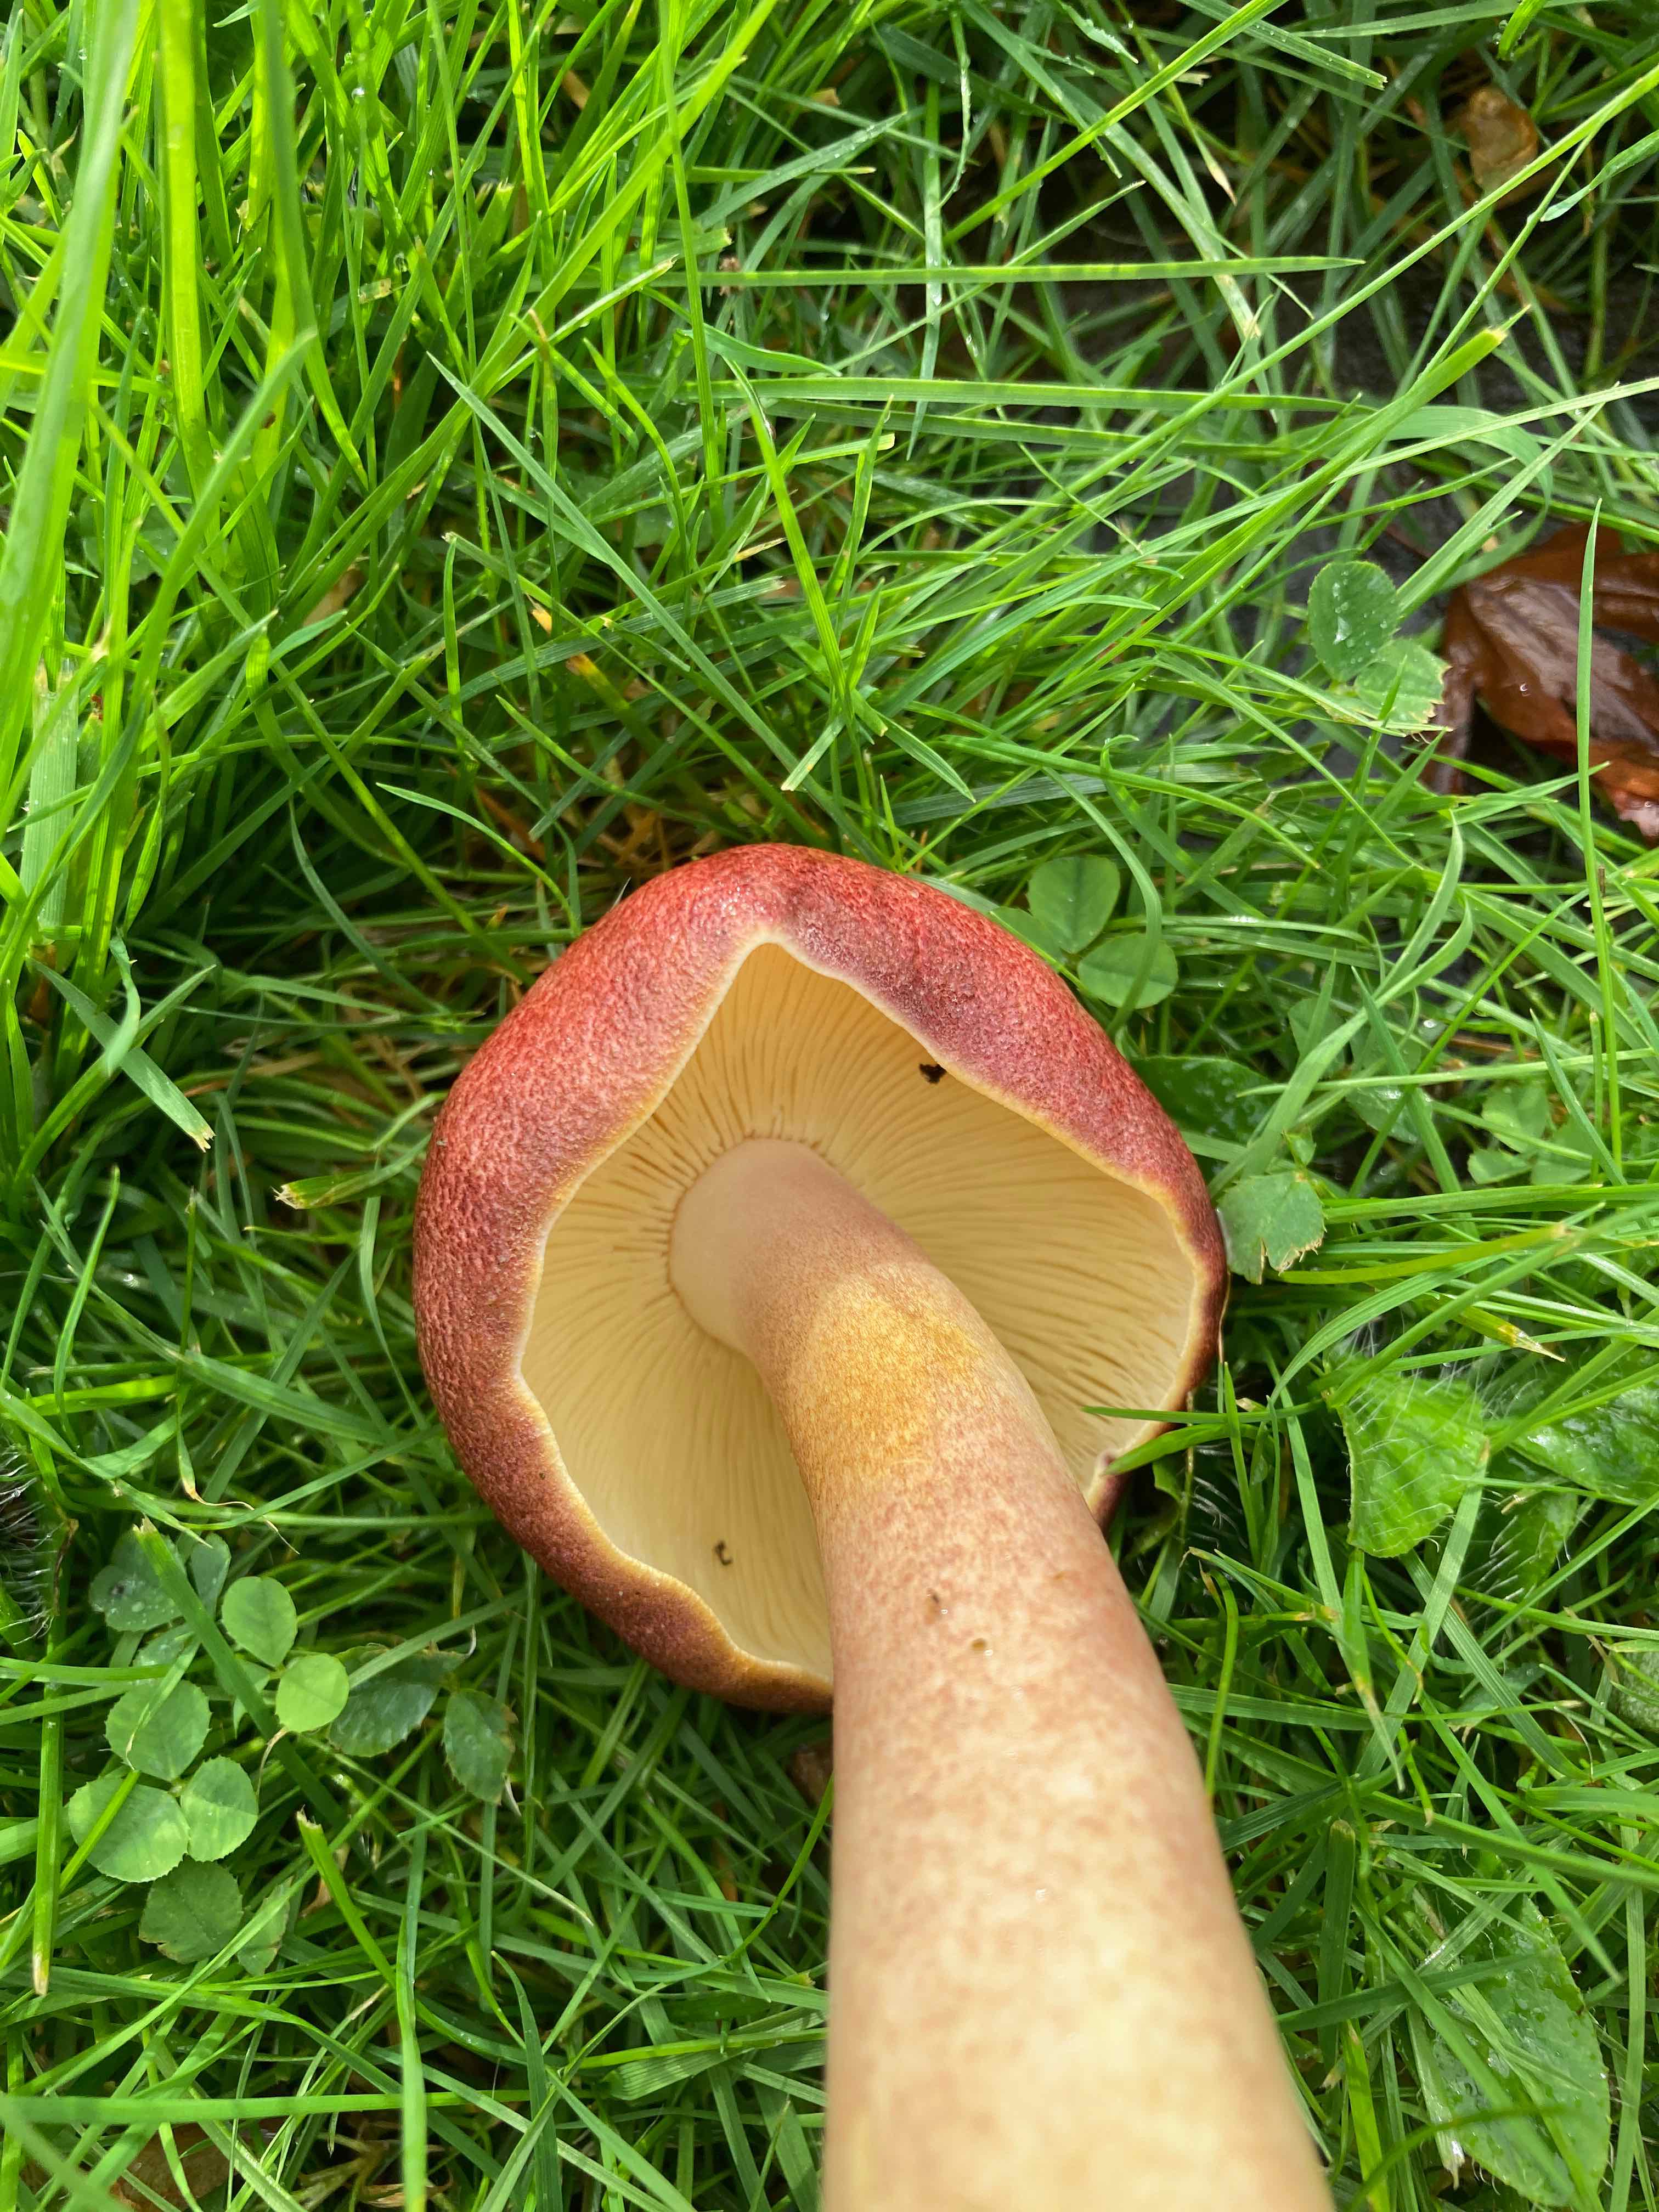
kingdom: Fungi
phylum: Basidiomycota
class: Agaricomycetes
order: Agaricales
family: Tricholomataceae
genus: Tricholomopsis
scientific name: Tricholomopsis rutilans
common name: purpur-væbnerhat
